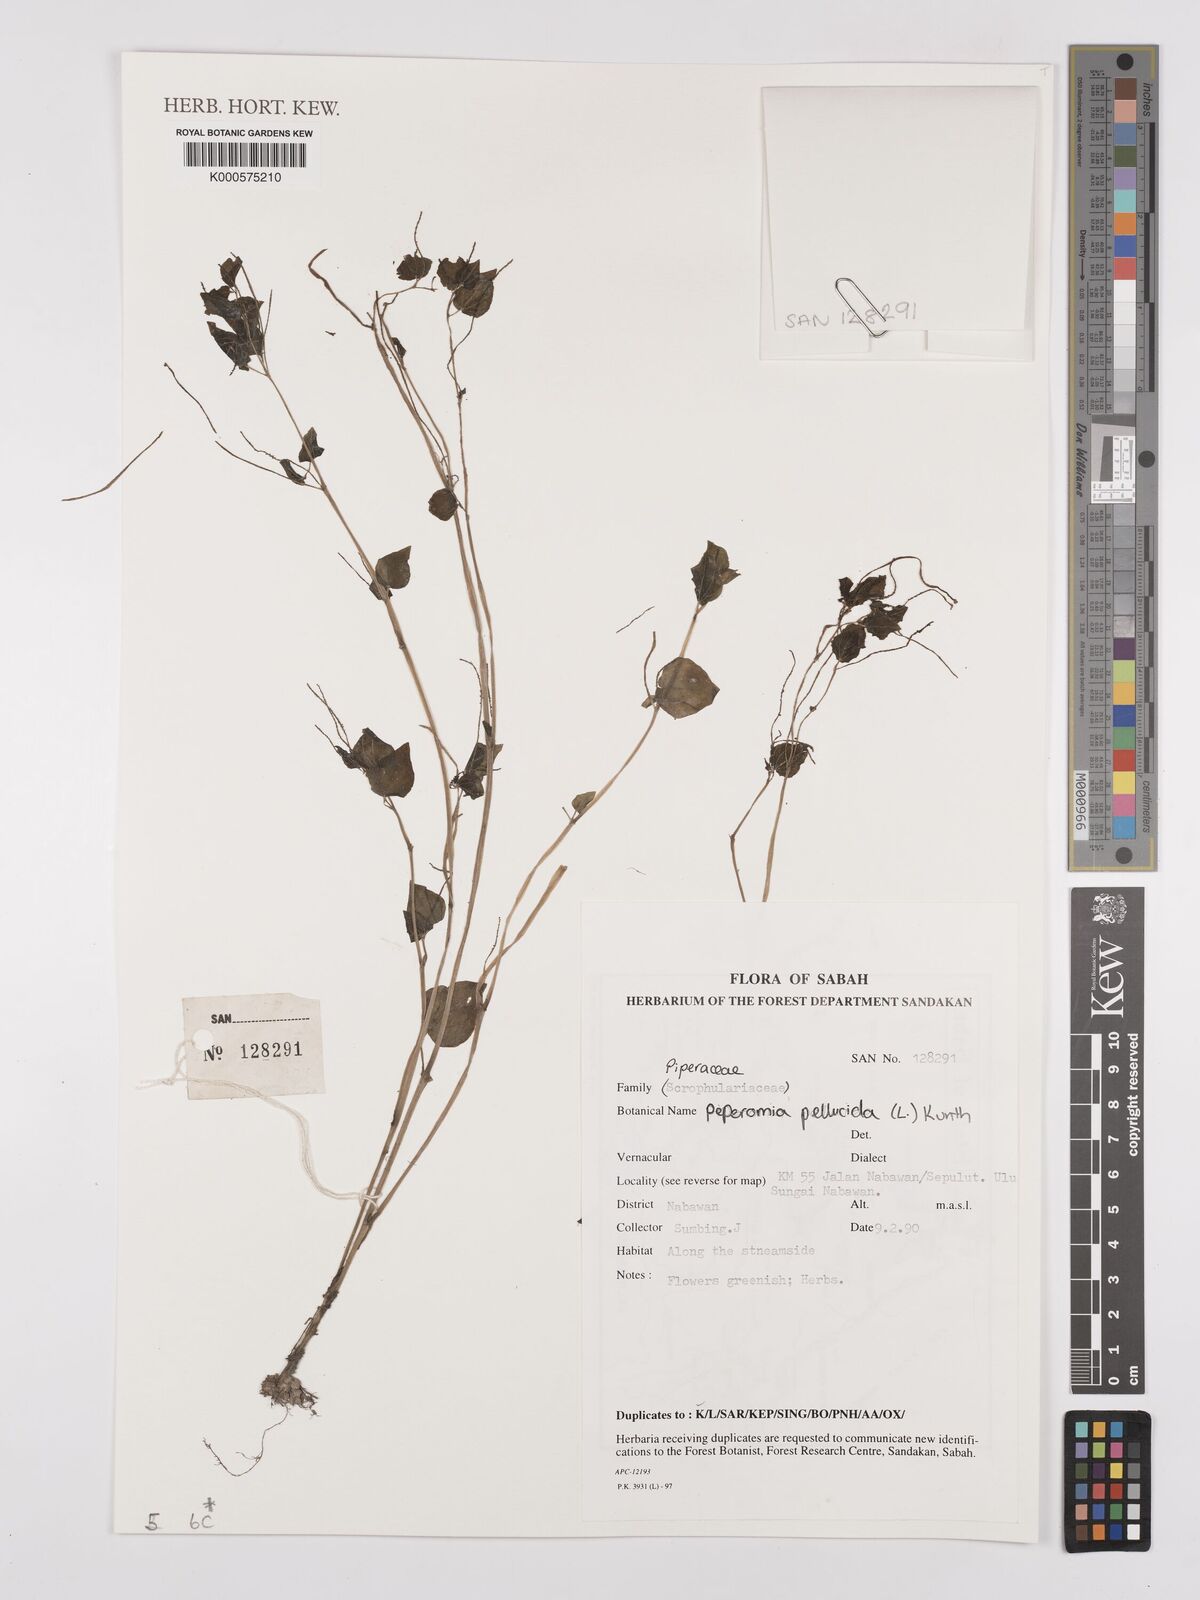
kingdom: Plantae
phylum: Tracheophyta
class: Magnoliopsida
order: Piperales
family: Piperaceae
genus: Peperomia
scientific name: Peperomia pellucida
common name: Man to man
